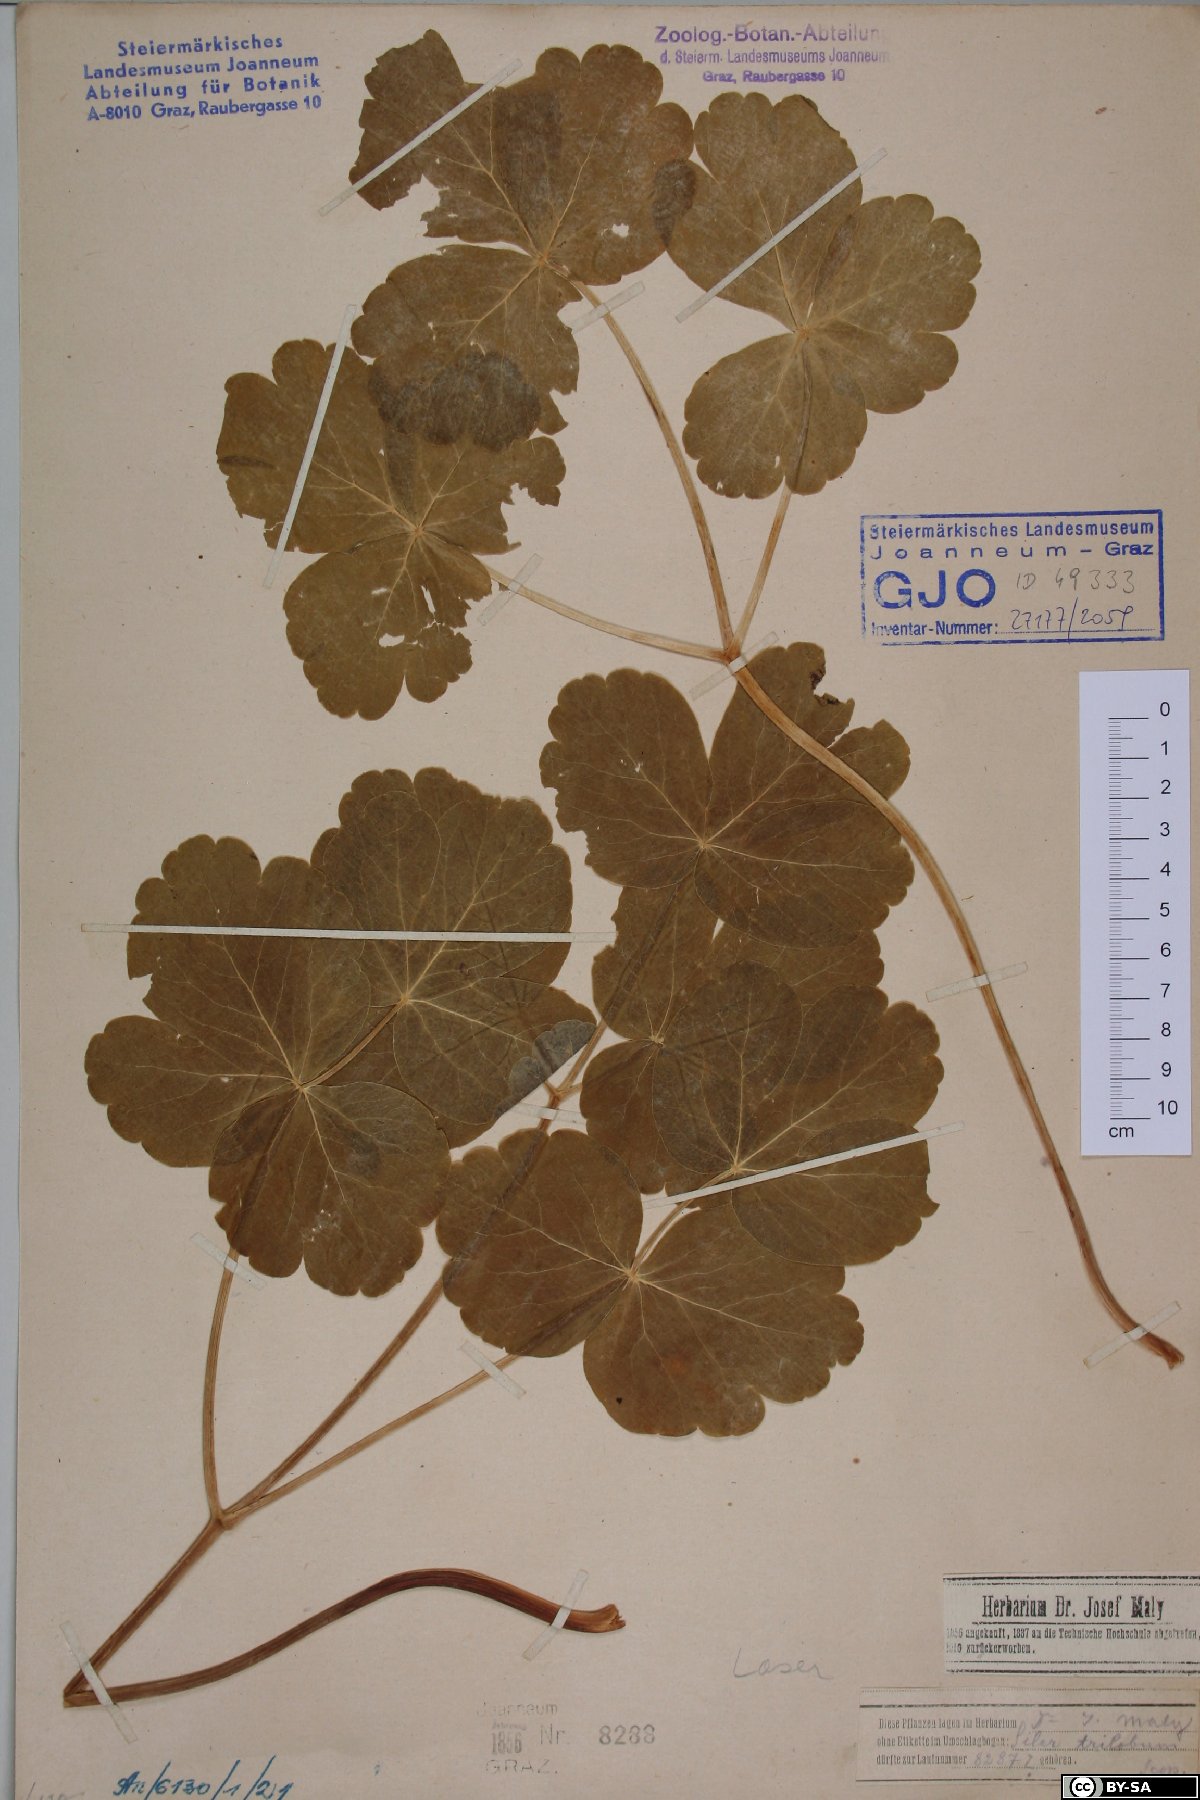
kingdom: Plantae
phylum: Tracheophyta
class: Magnoliopsida
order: Apiales
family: Apiaceae
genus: Laser
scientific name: Laser trilobum
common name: Laser
